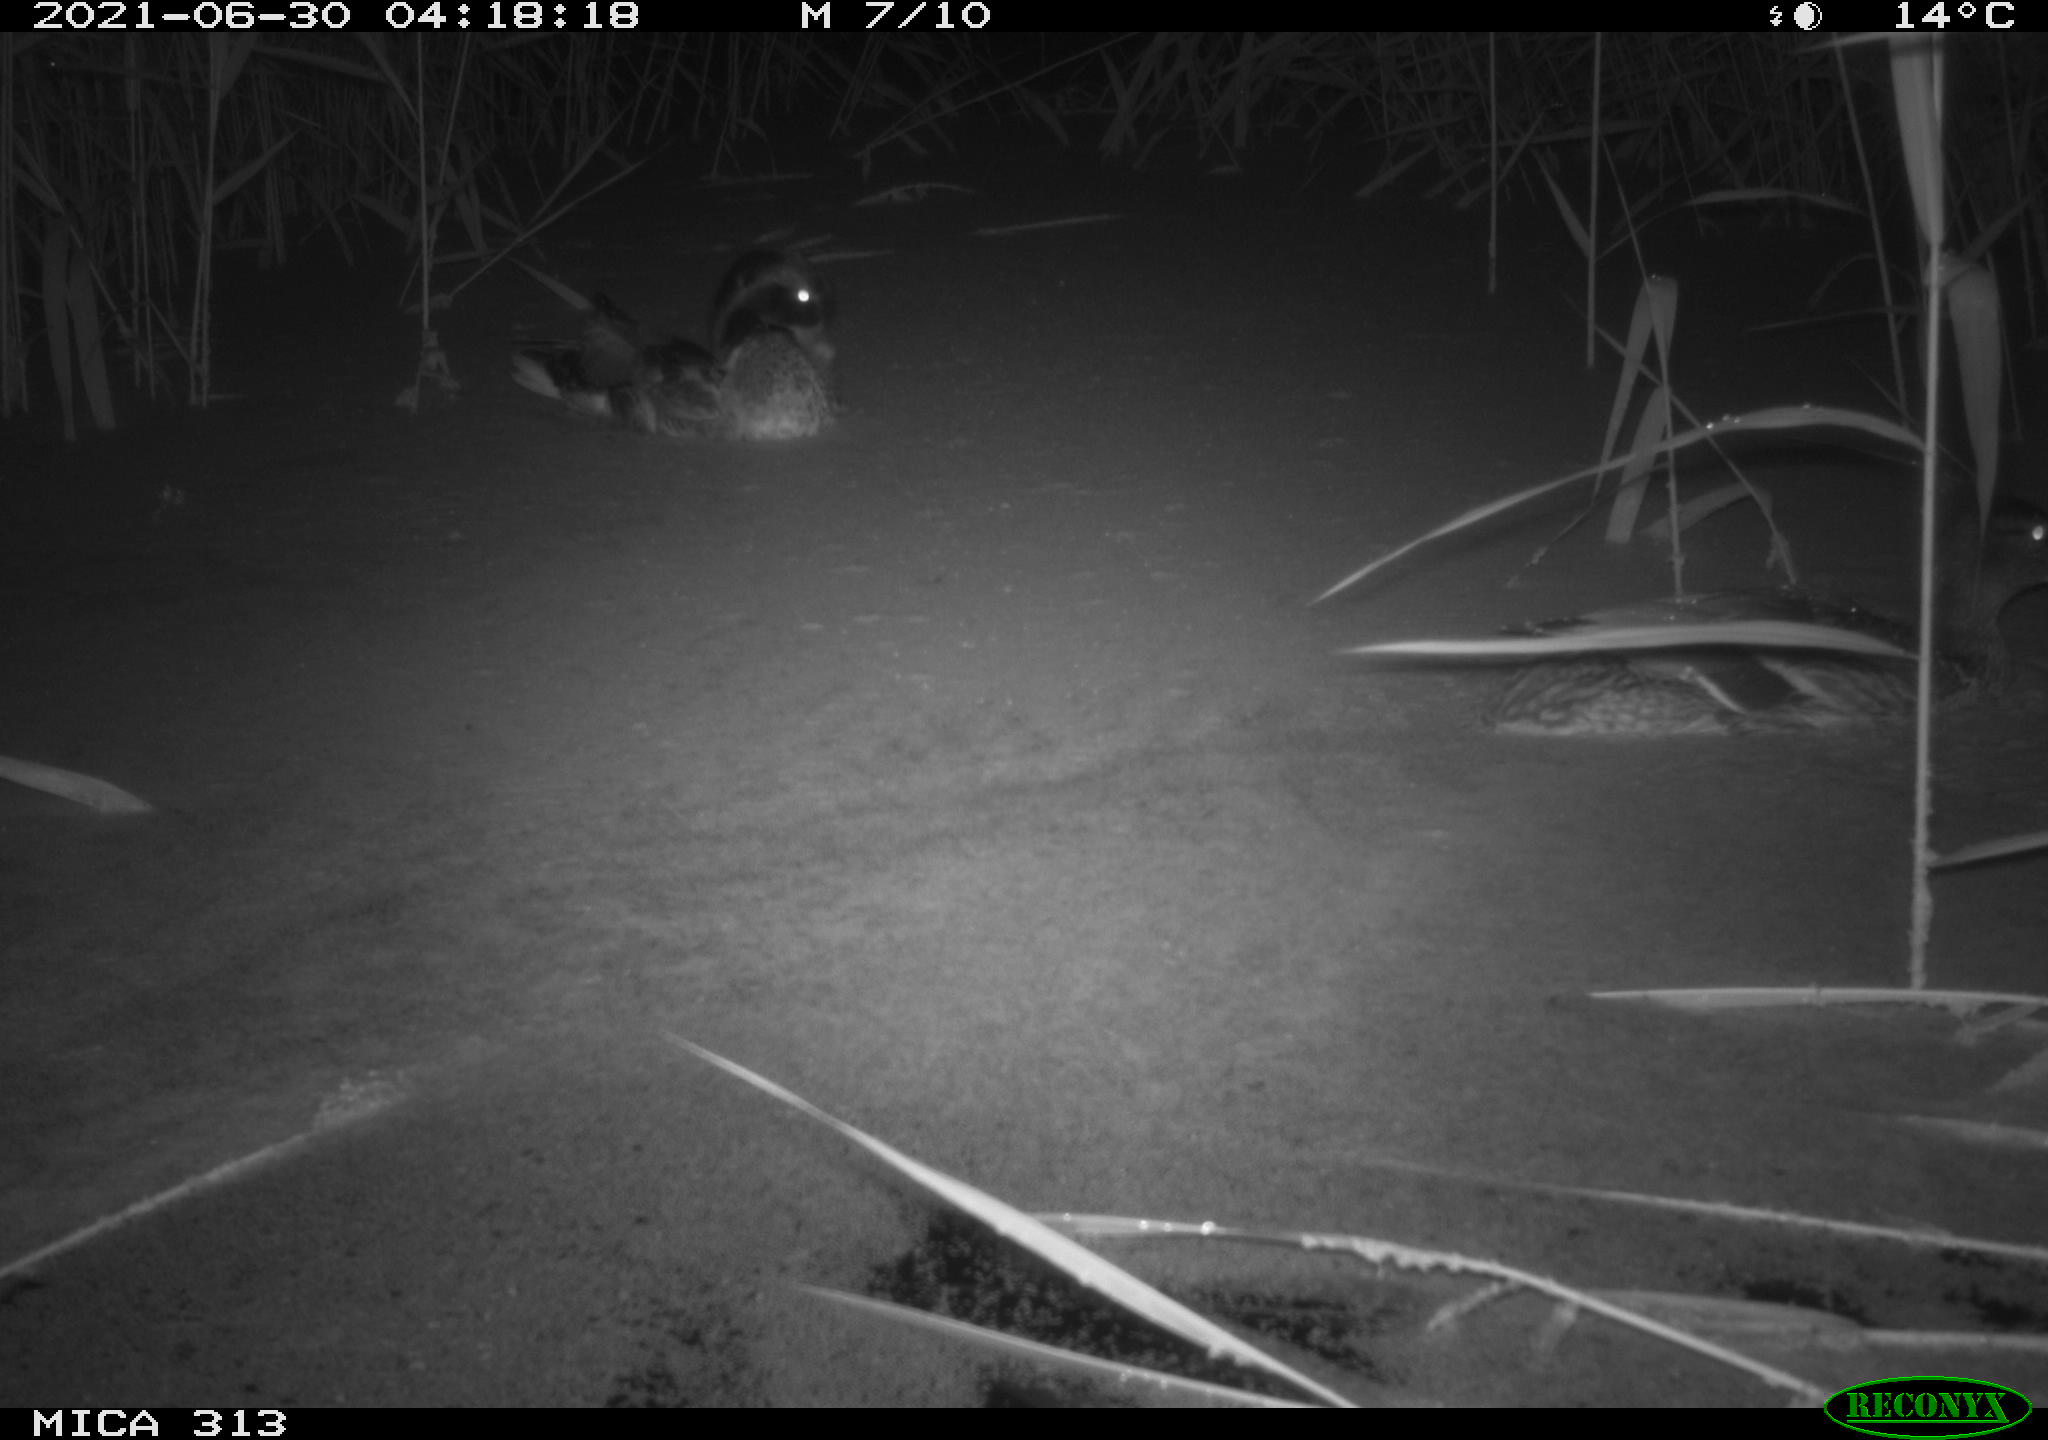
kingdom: Animalia
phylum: Chordata
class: Aves
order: Anseriformes
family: Anatidae
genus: Anas
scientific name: Anas platyrhynchos
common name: Mallard
